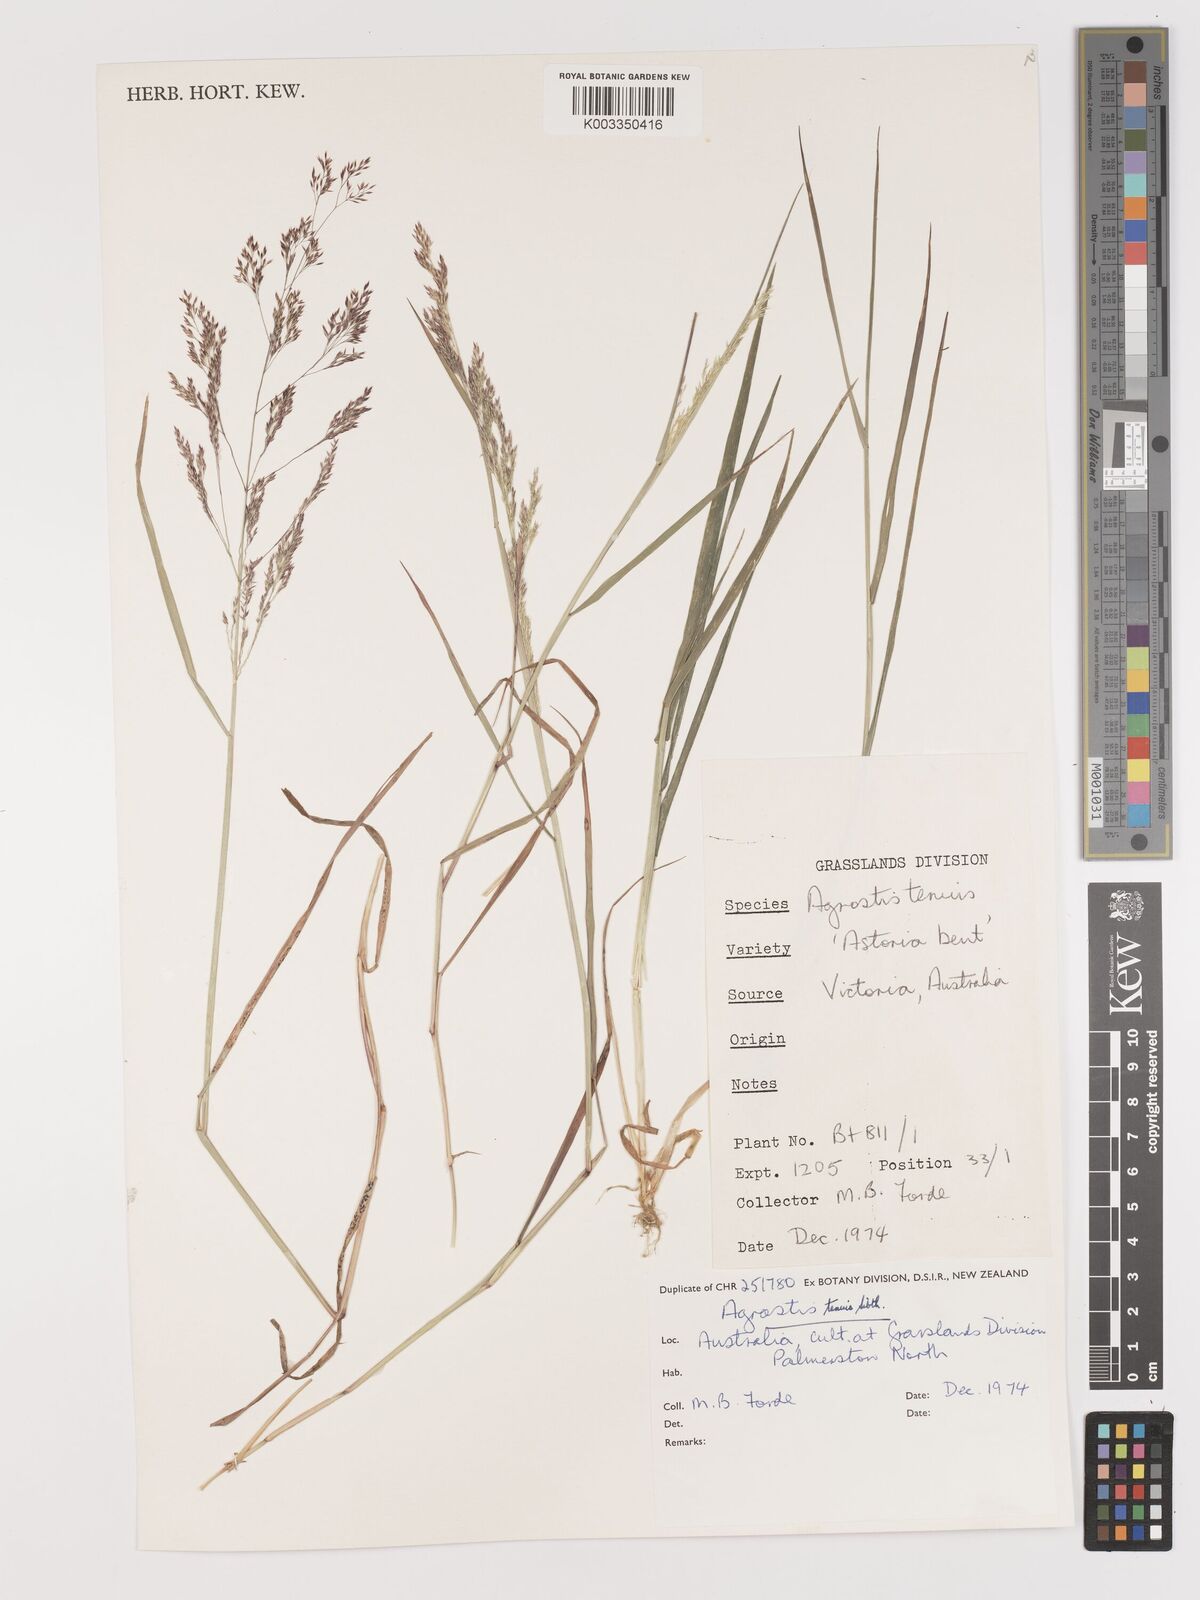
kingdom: Plantae
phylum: Tracheophyta
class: Liliopsida
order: Poales
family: Poaceae
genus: Agrostis
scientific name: Agrostis capillaris
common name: Colonial bentgrass
